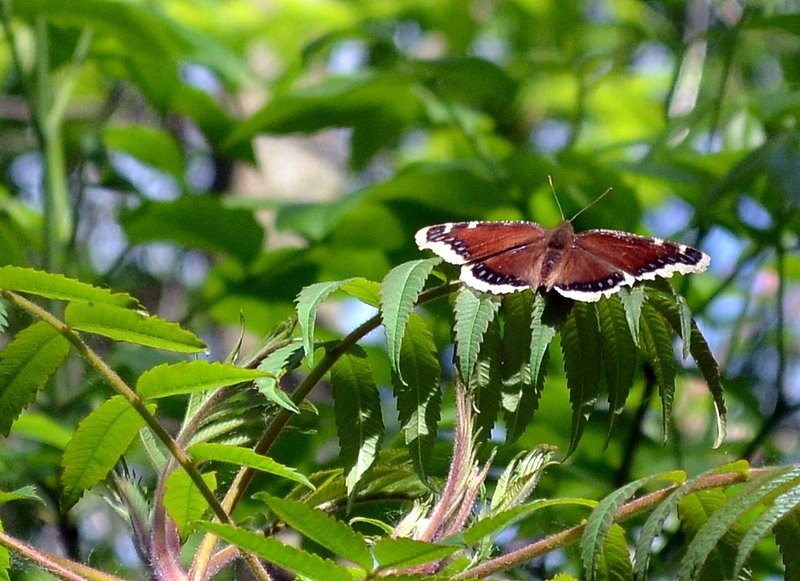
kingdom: Animalia
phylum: Arthropoda
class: Insecta
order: Lepidoptera
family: Nymphalidae
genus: Nymphalis
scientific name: Nymphalis antiopa
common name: Mourning Cloak
